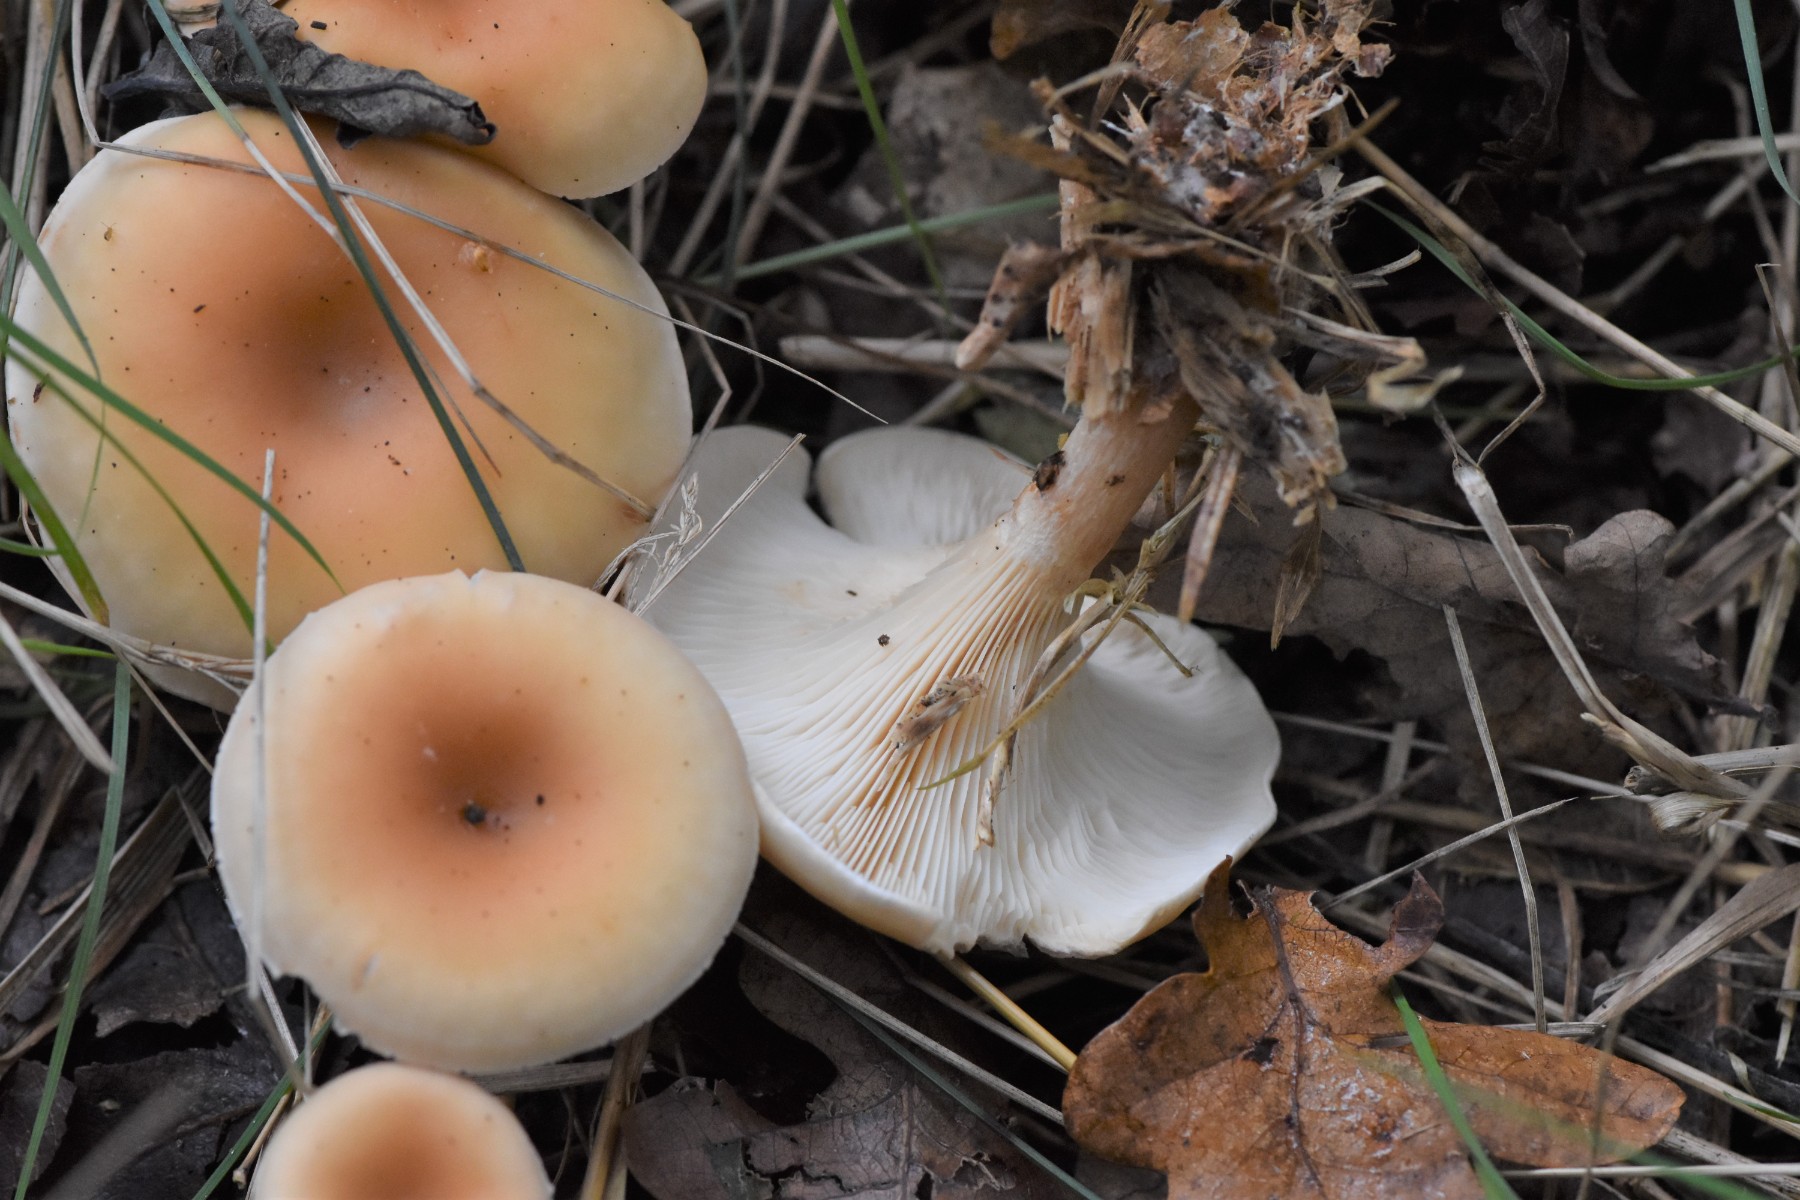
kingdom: Fungi
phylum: Basidiomycota
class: Agaricomycetes
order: Agaricales
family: Tricholomataceae
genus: Paralepista
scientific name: Paralepista flaccida
